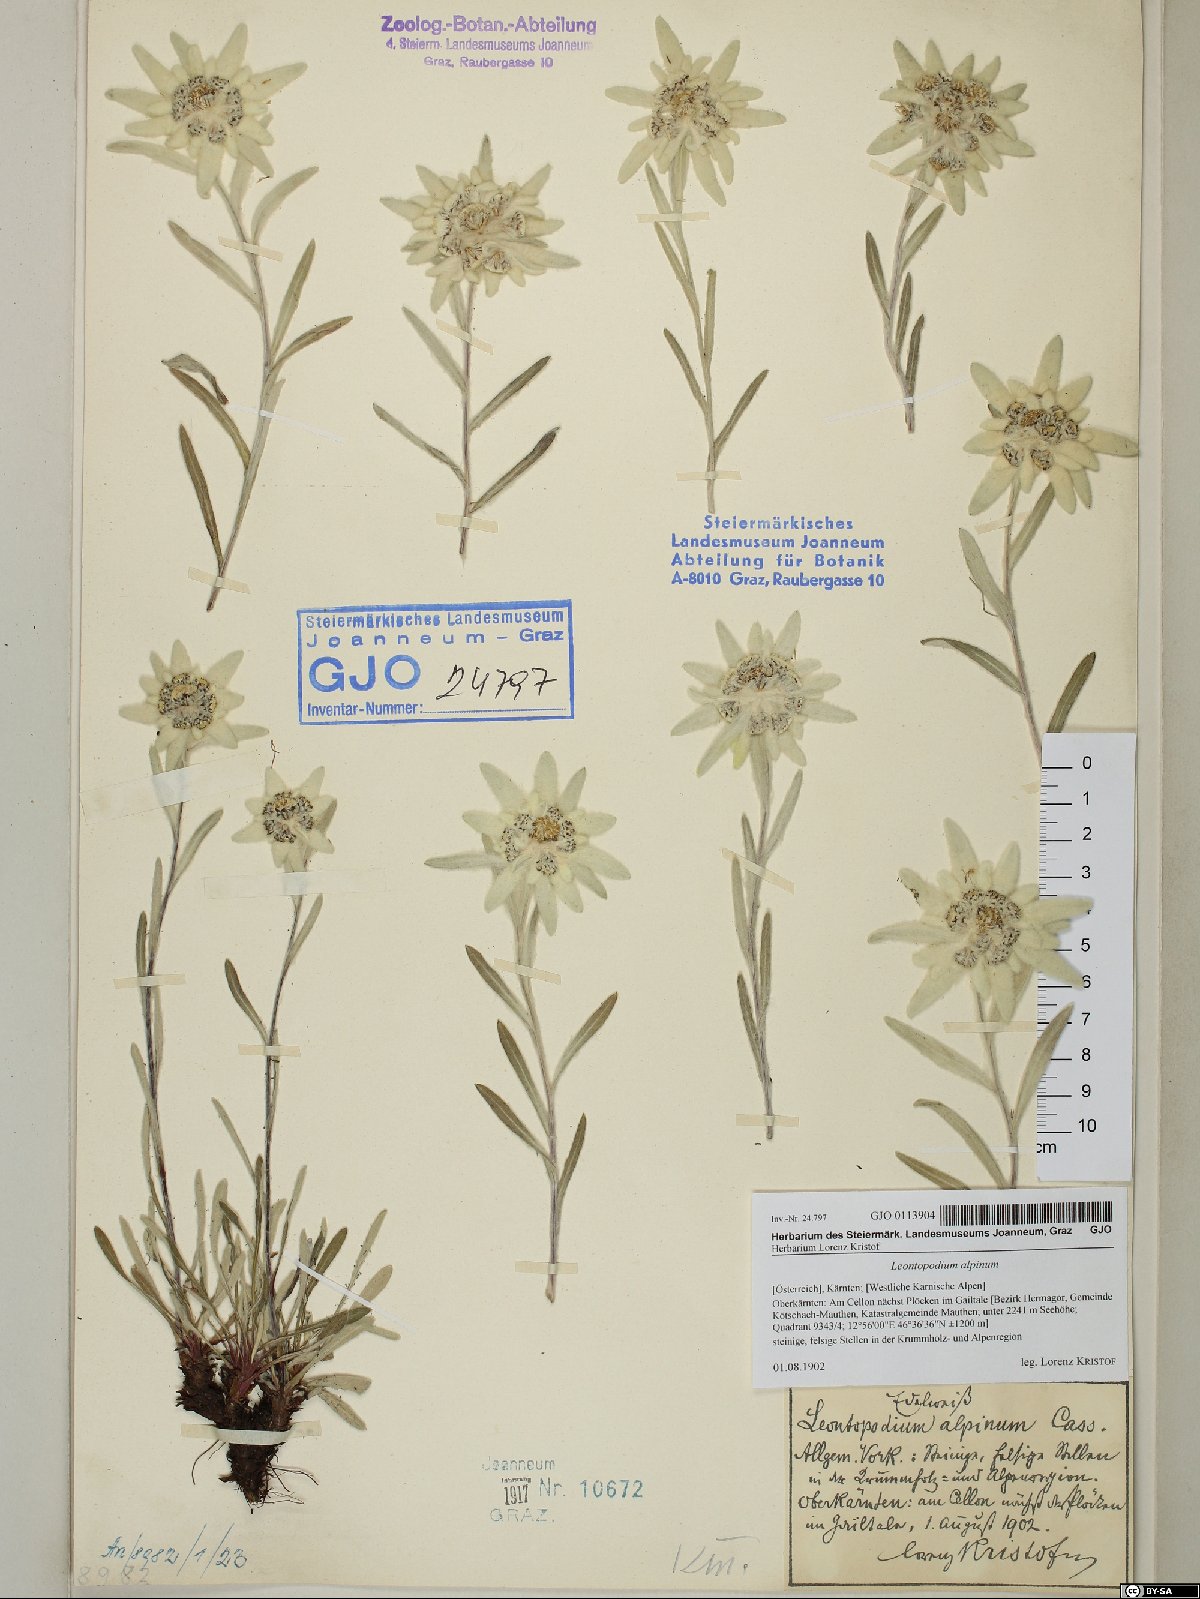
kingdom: Plantae
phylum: Tracheophyta
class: Magnoliopsida
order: Asterales
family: Asteraceae
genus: Leontopodium
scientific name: Leontopodium nivale
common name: Edelweiss
